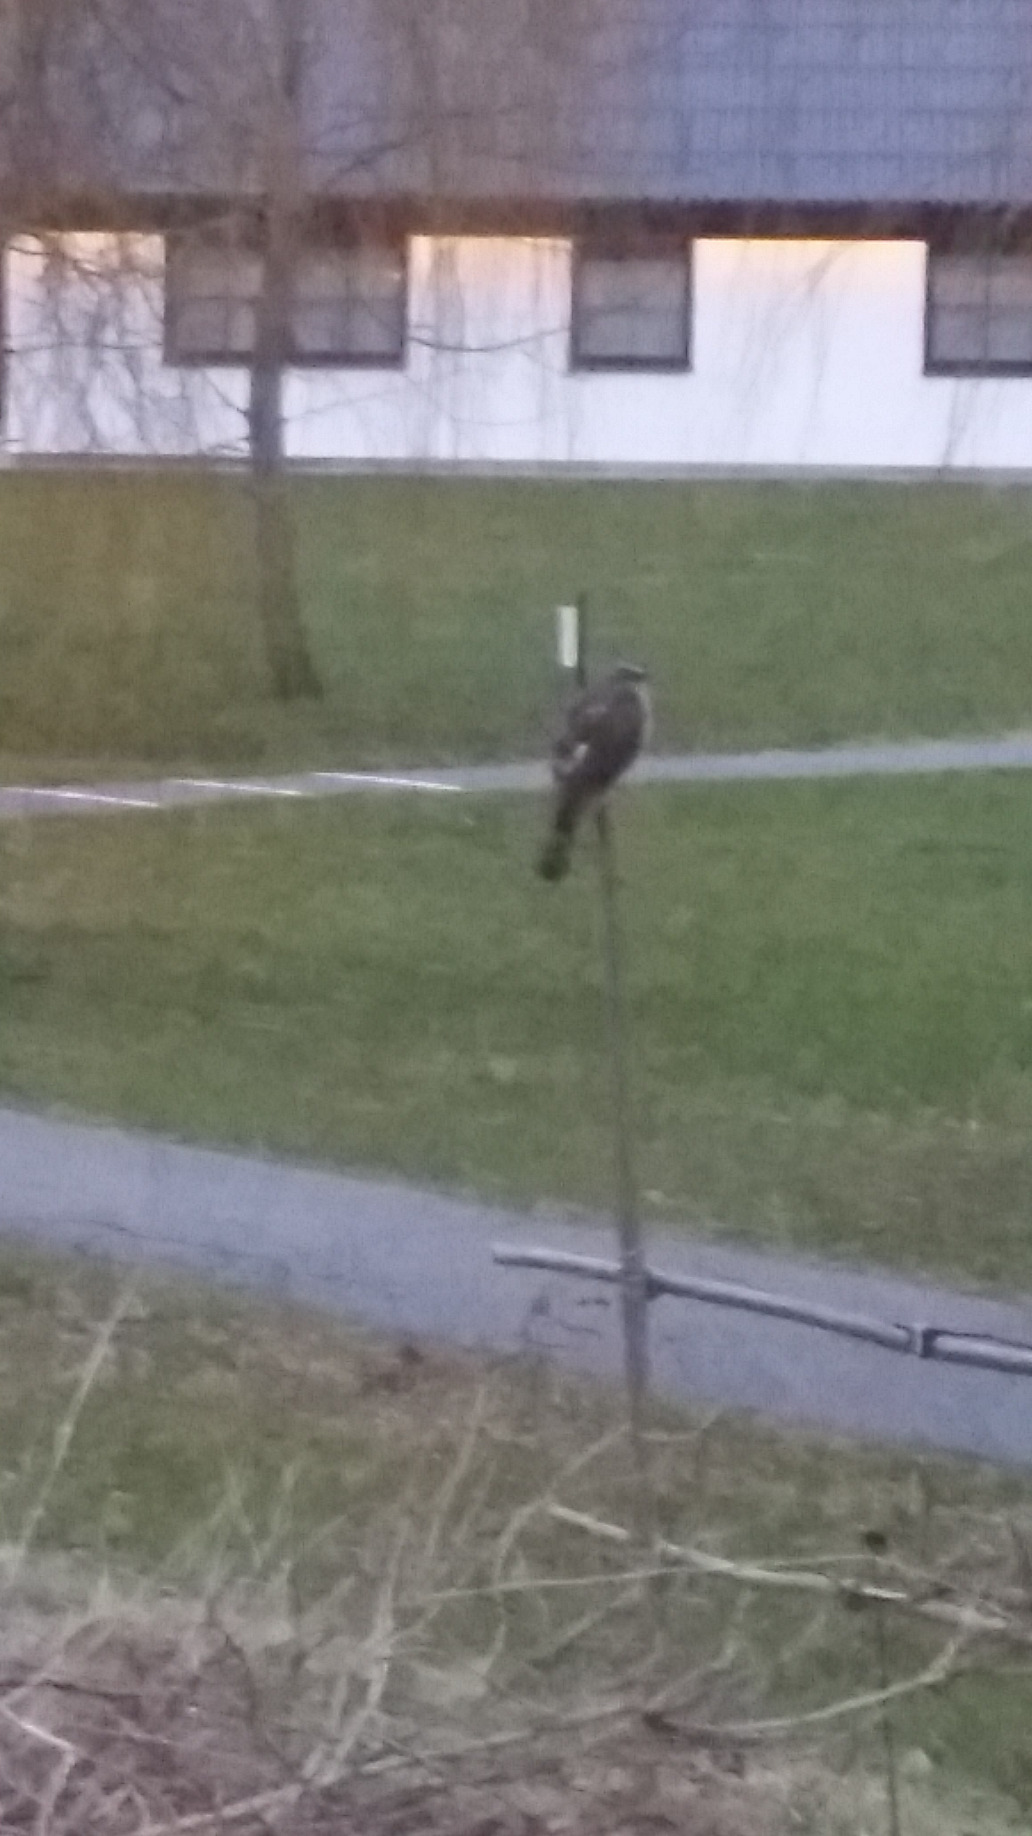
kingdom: Animalia
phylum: Chordata
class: Aves
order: Accipitriformes
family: Accipitridae
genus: Accipiter
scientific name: Accipiter nisus
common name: Spurvehøg
